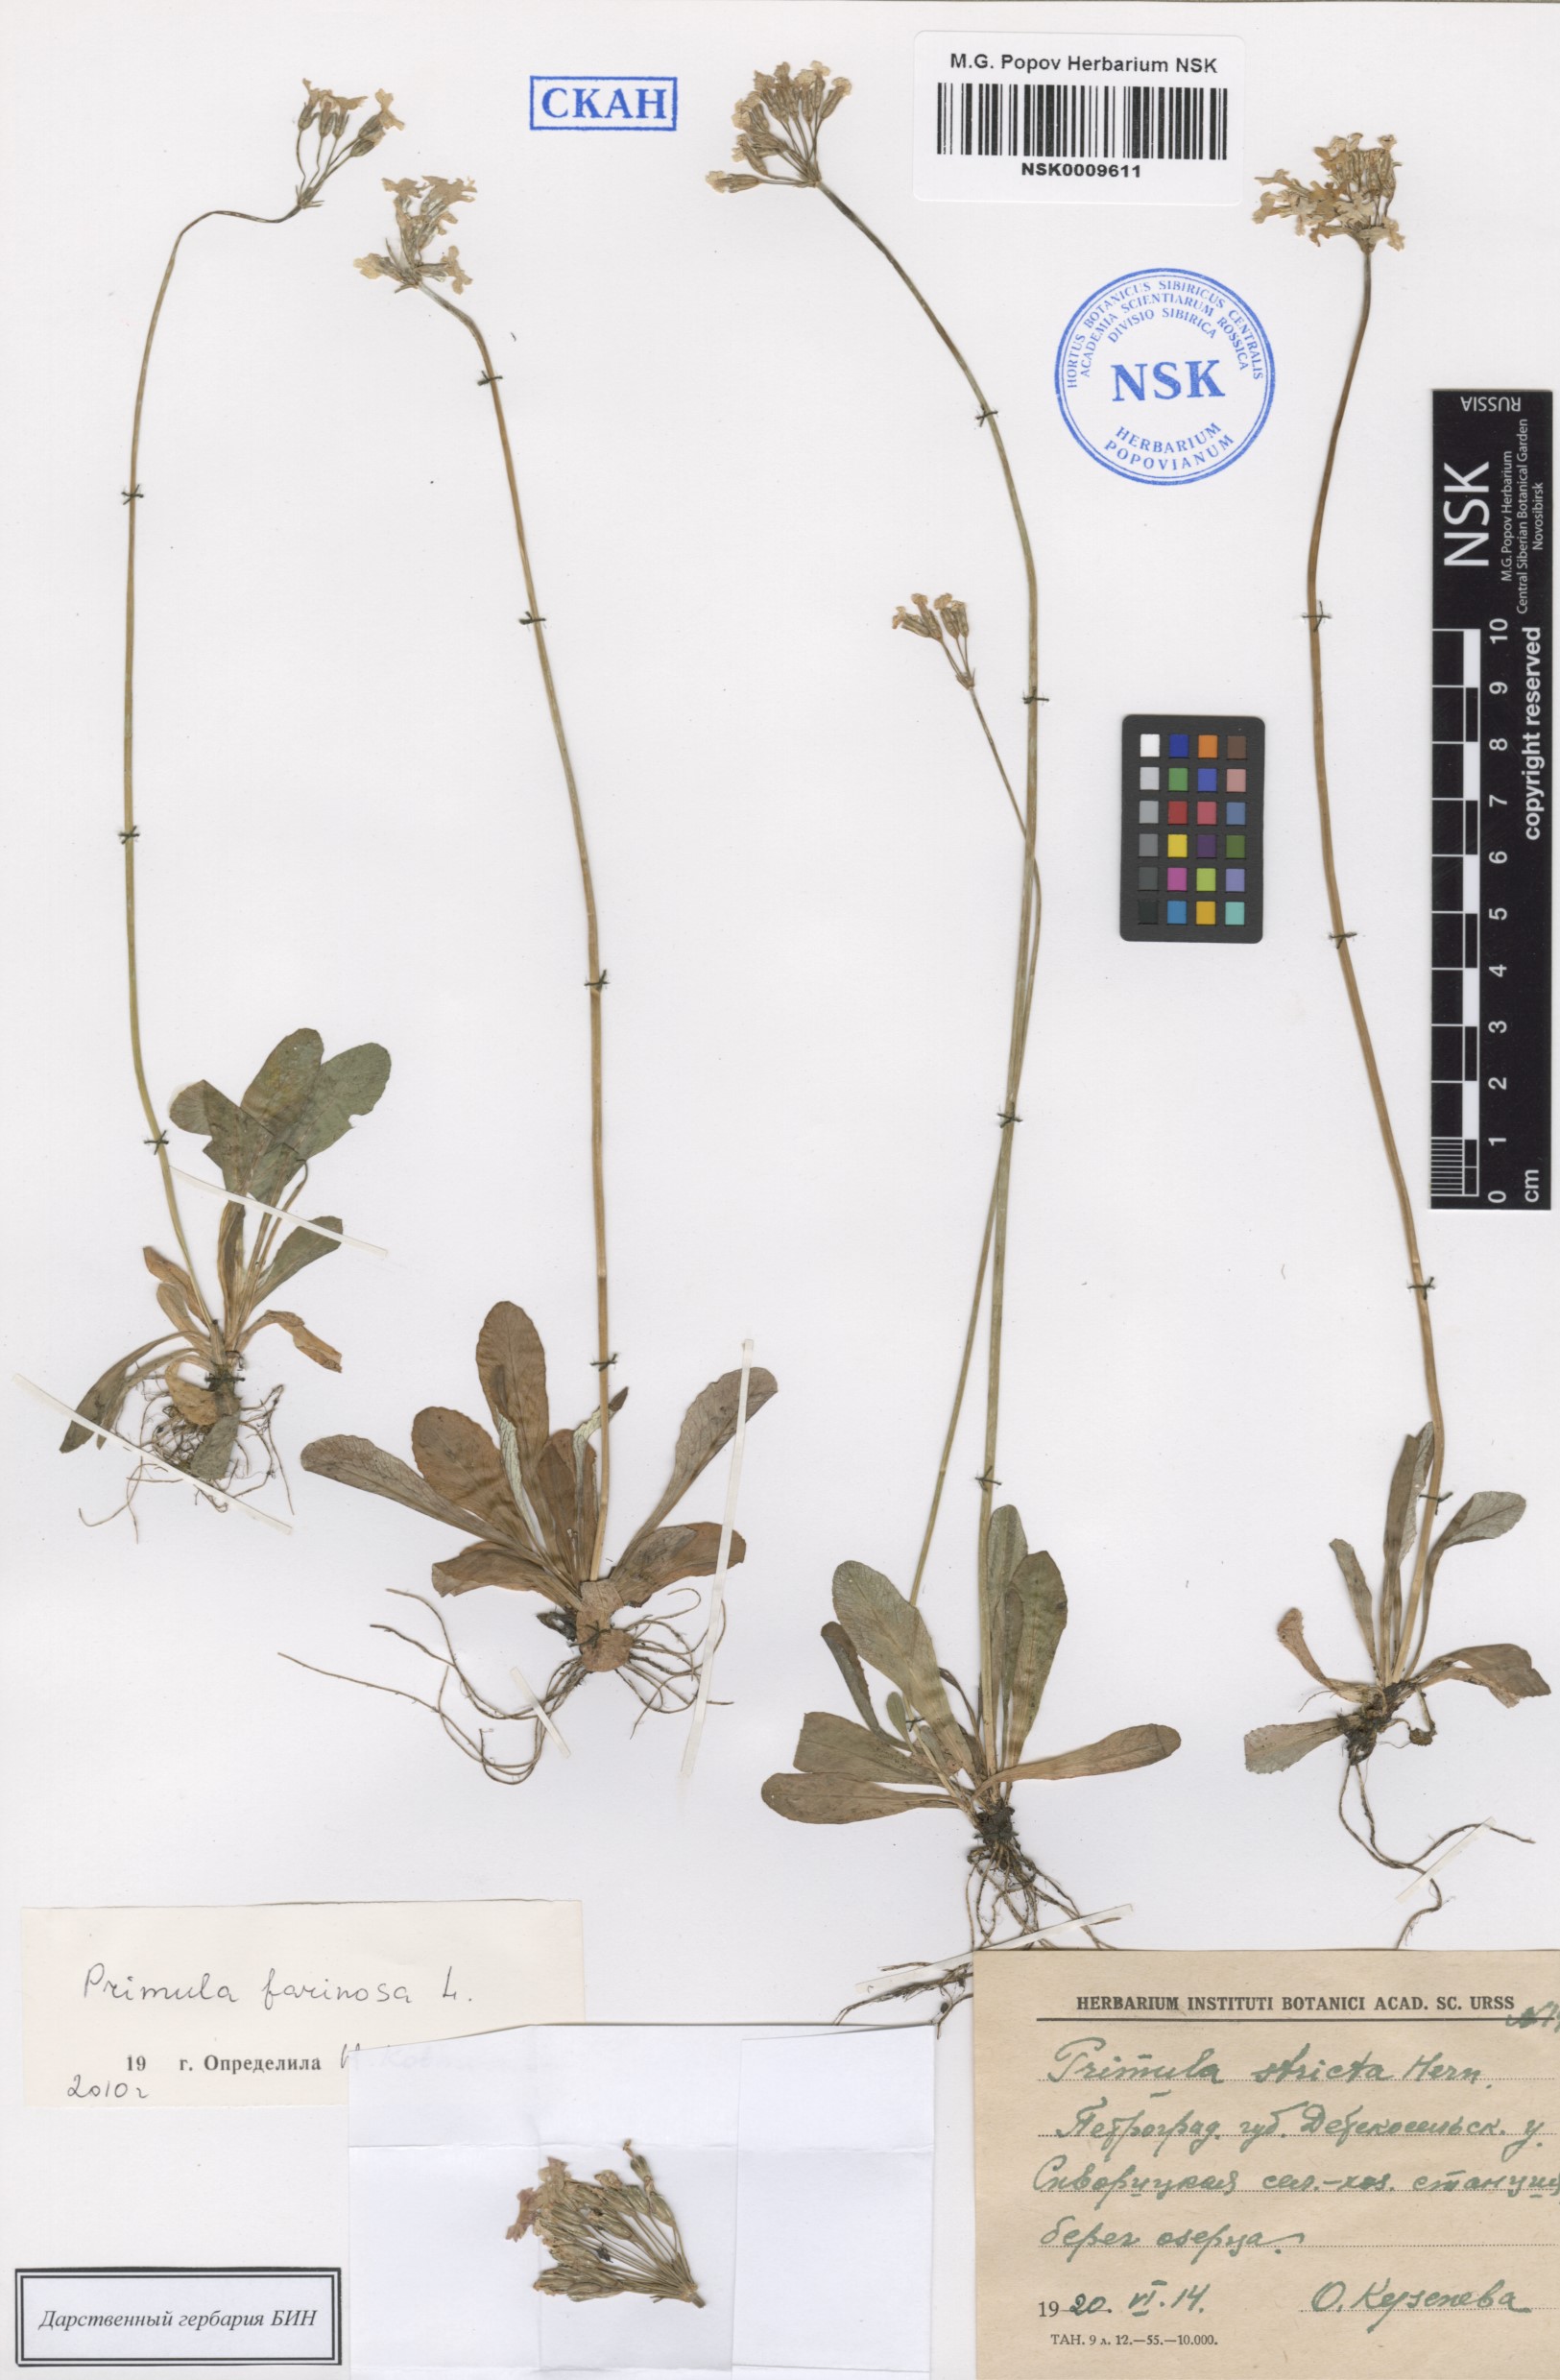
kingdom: Plantae
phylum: Tracheophyta
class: Magnoliopsida
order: Ericales
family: Primulaceae
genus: Primula
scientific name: Primula farinosa
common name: Bird's-eye primrose
